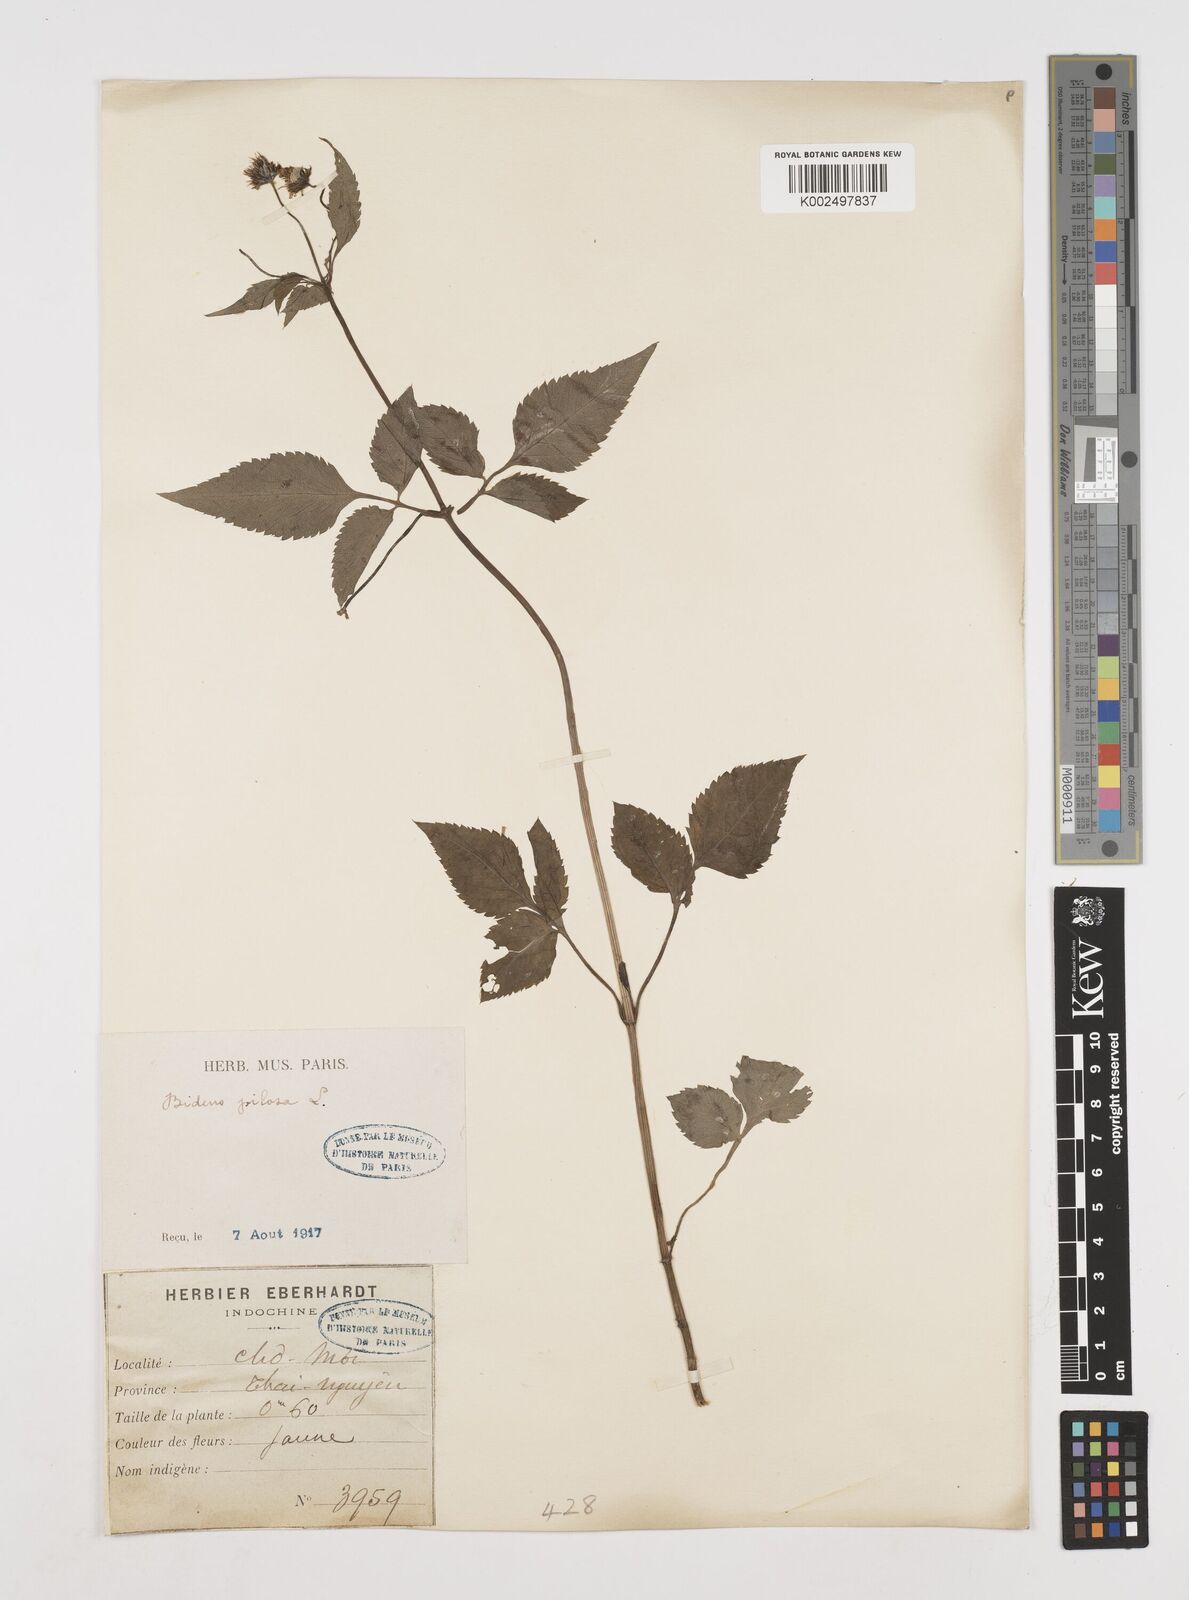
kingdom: Plantae
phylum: Tracheophyta
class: Magnoliopsida
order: Asterales
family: Asteraceae
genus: Bidens
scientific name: Bidens alba
